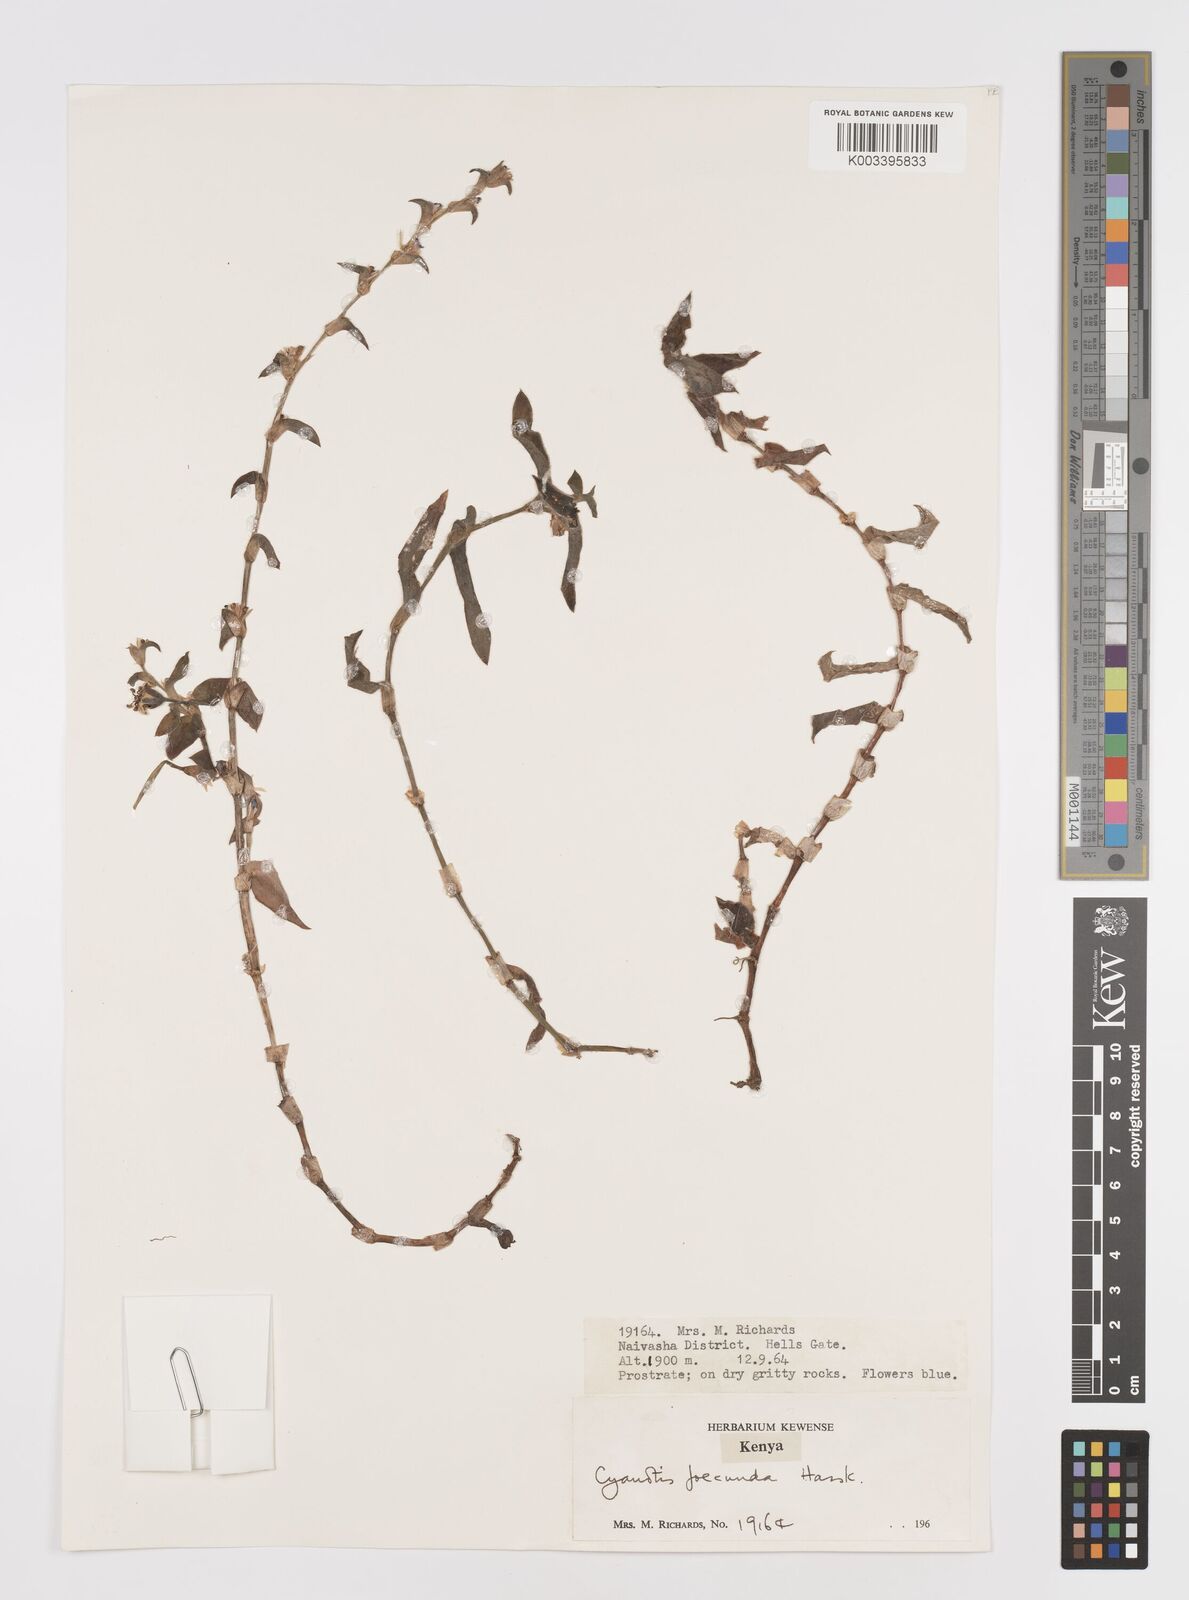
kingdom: Plantae
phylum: Tracheophyta
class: Liliopsida
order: Commelinales
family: Commelinaceae
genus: Cyanotis
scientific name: Cyanotis foecunda
